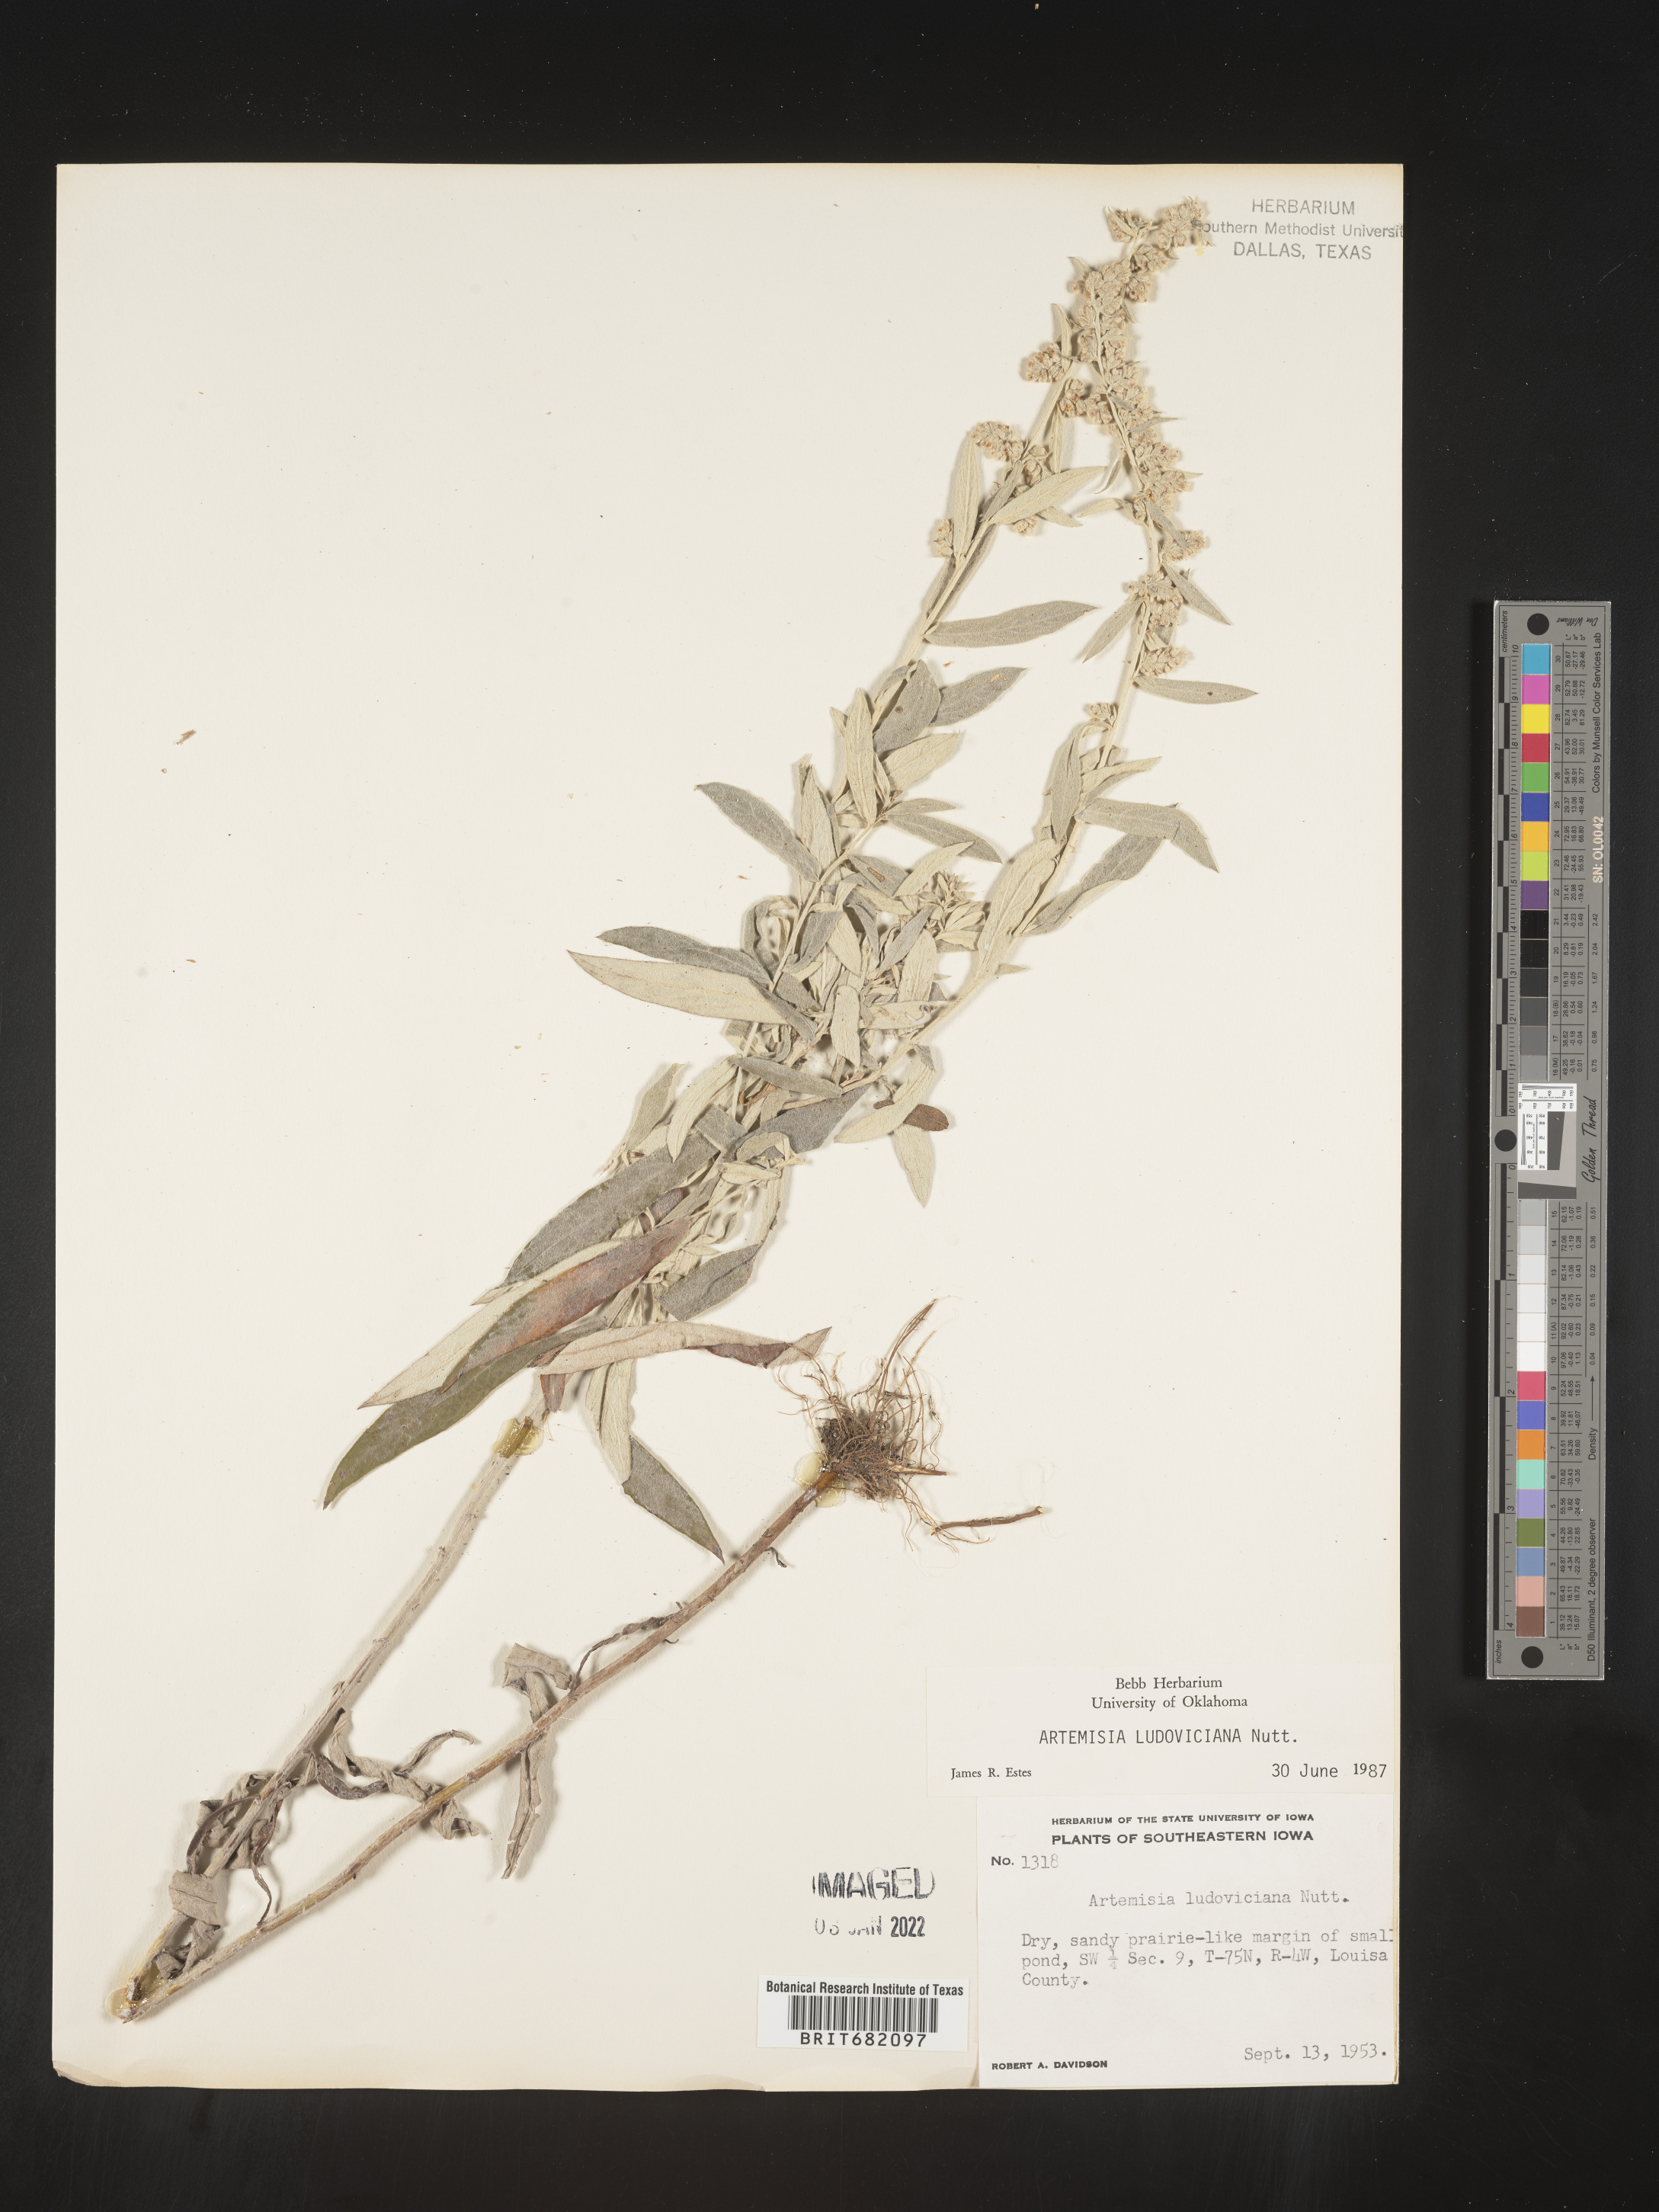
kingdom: Plantae
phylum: Tracheophyta
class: Magnoliopsida
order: Asterales
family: Asteraceae
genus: Artemisia
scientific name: Artemisia ludoviciana
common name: Western mugwort
